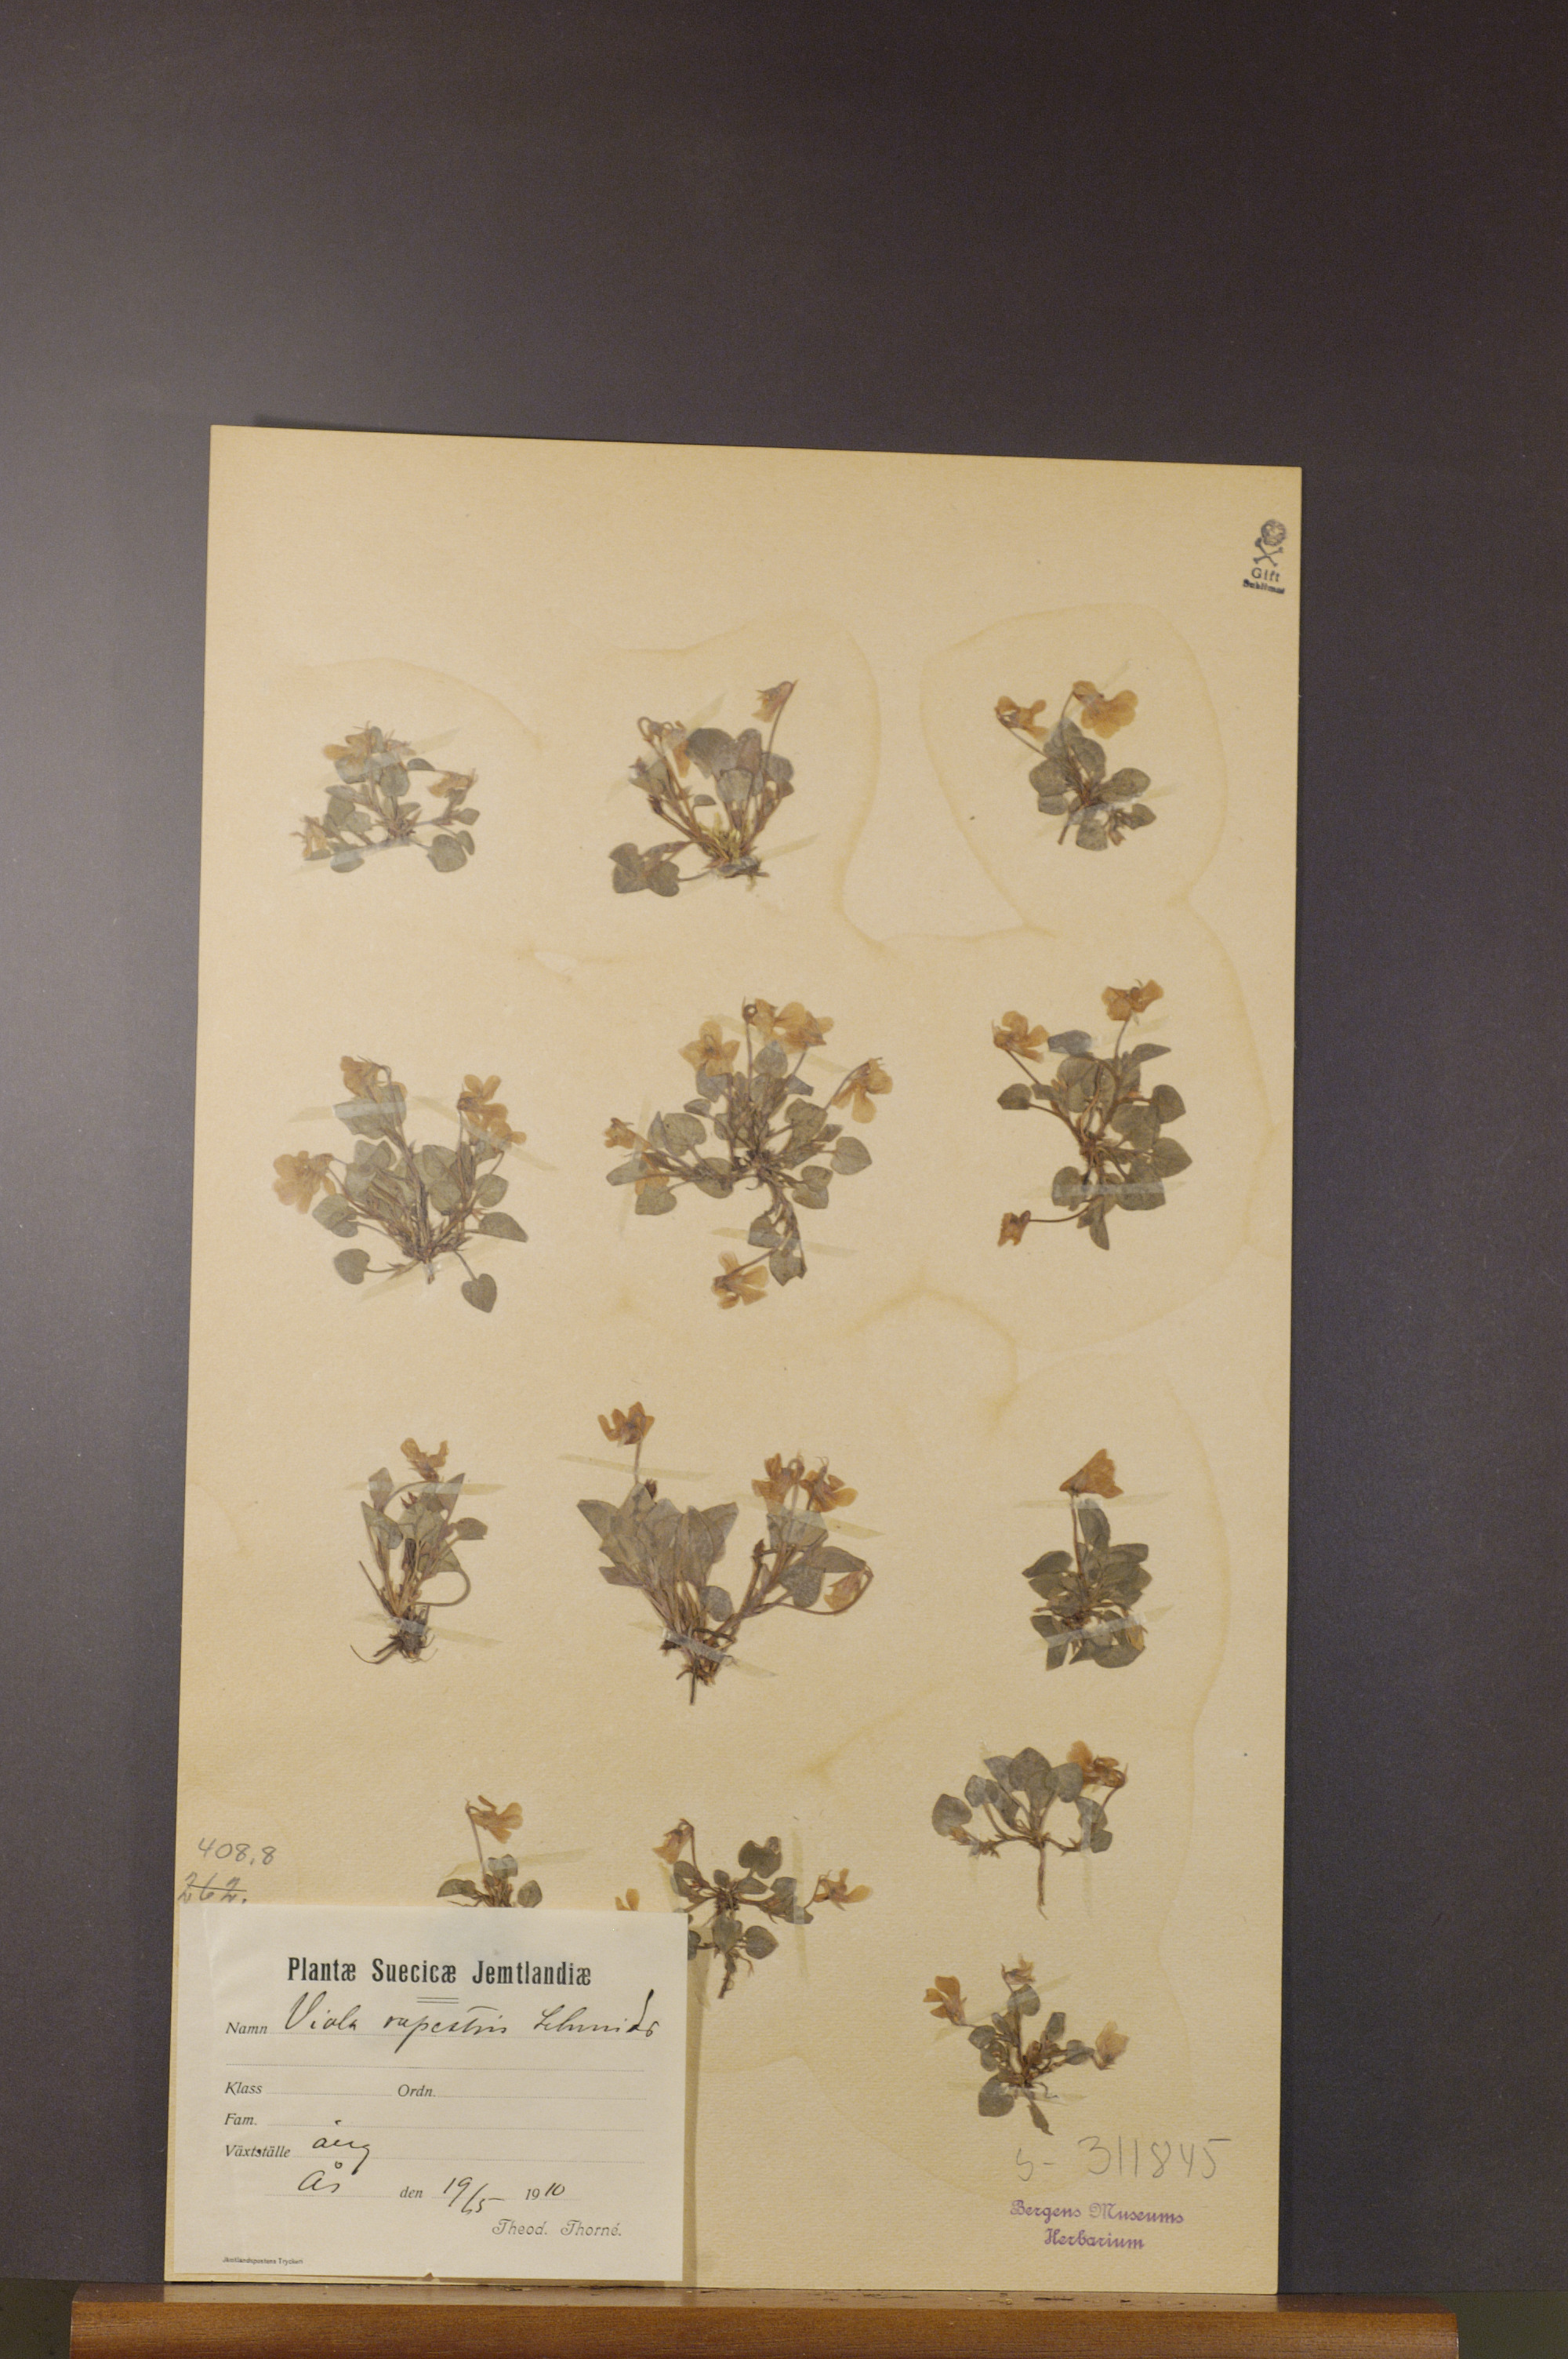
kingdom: Plantae
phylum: Tracheophyta
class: Magnoliopsida
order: Malpighiales
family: Violaceae
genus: Viola
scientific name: Viola rupestris
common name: Teesdale violet
